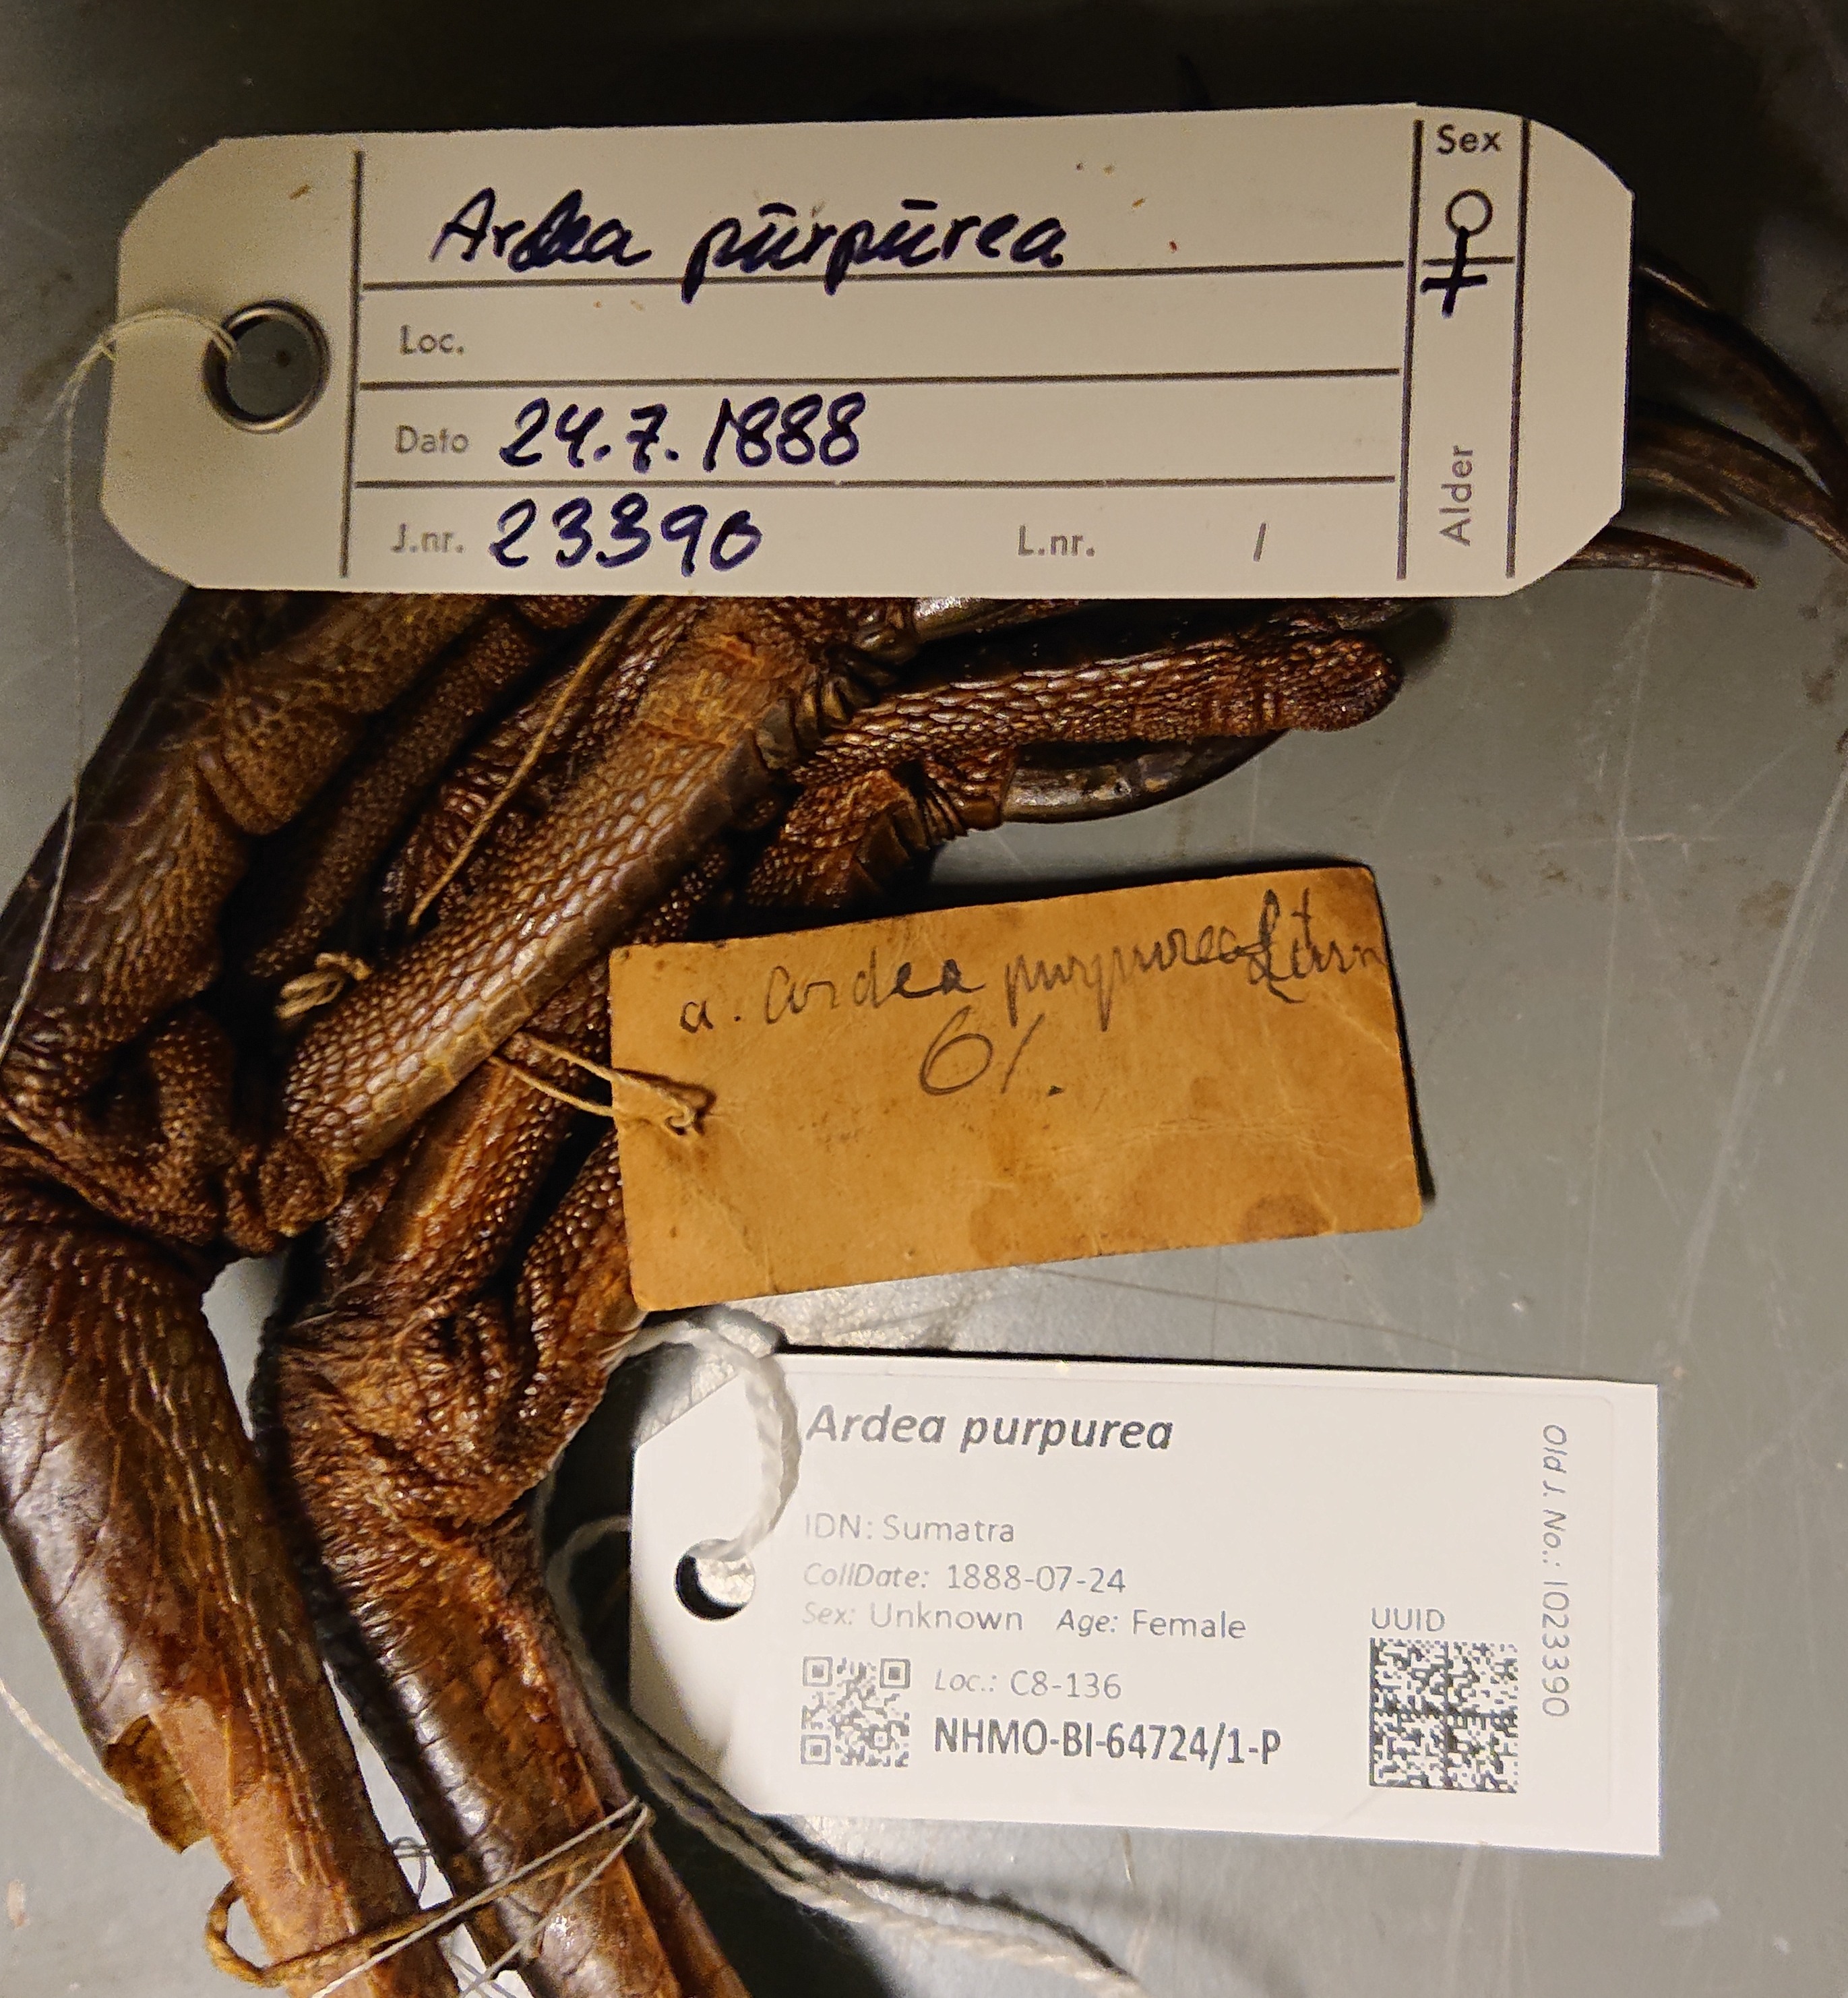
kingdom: Animalia
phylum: Chordata
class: Aves
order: Pelecaniformes
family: Ardeidae
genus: Ardea
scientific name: Ardea purpurea
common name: Purple heron
